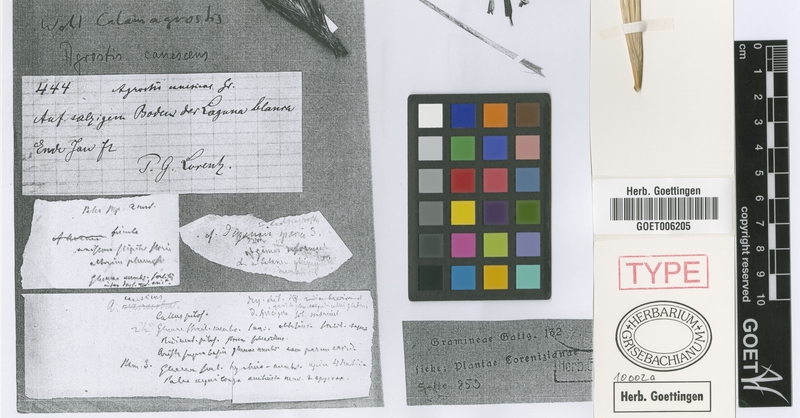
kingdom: Plantae
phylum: Tracheophyta
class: Liliopsida
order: Poales
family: Poaceae
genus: Cinnagrostis
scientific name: Cinnagrostis velutina
